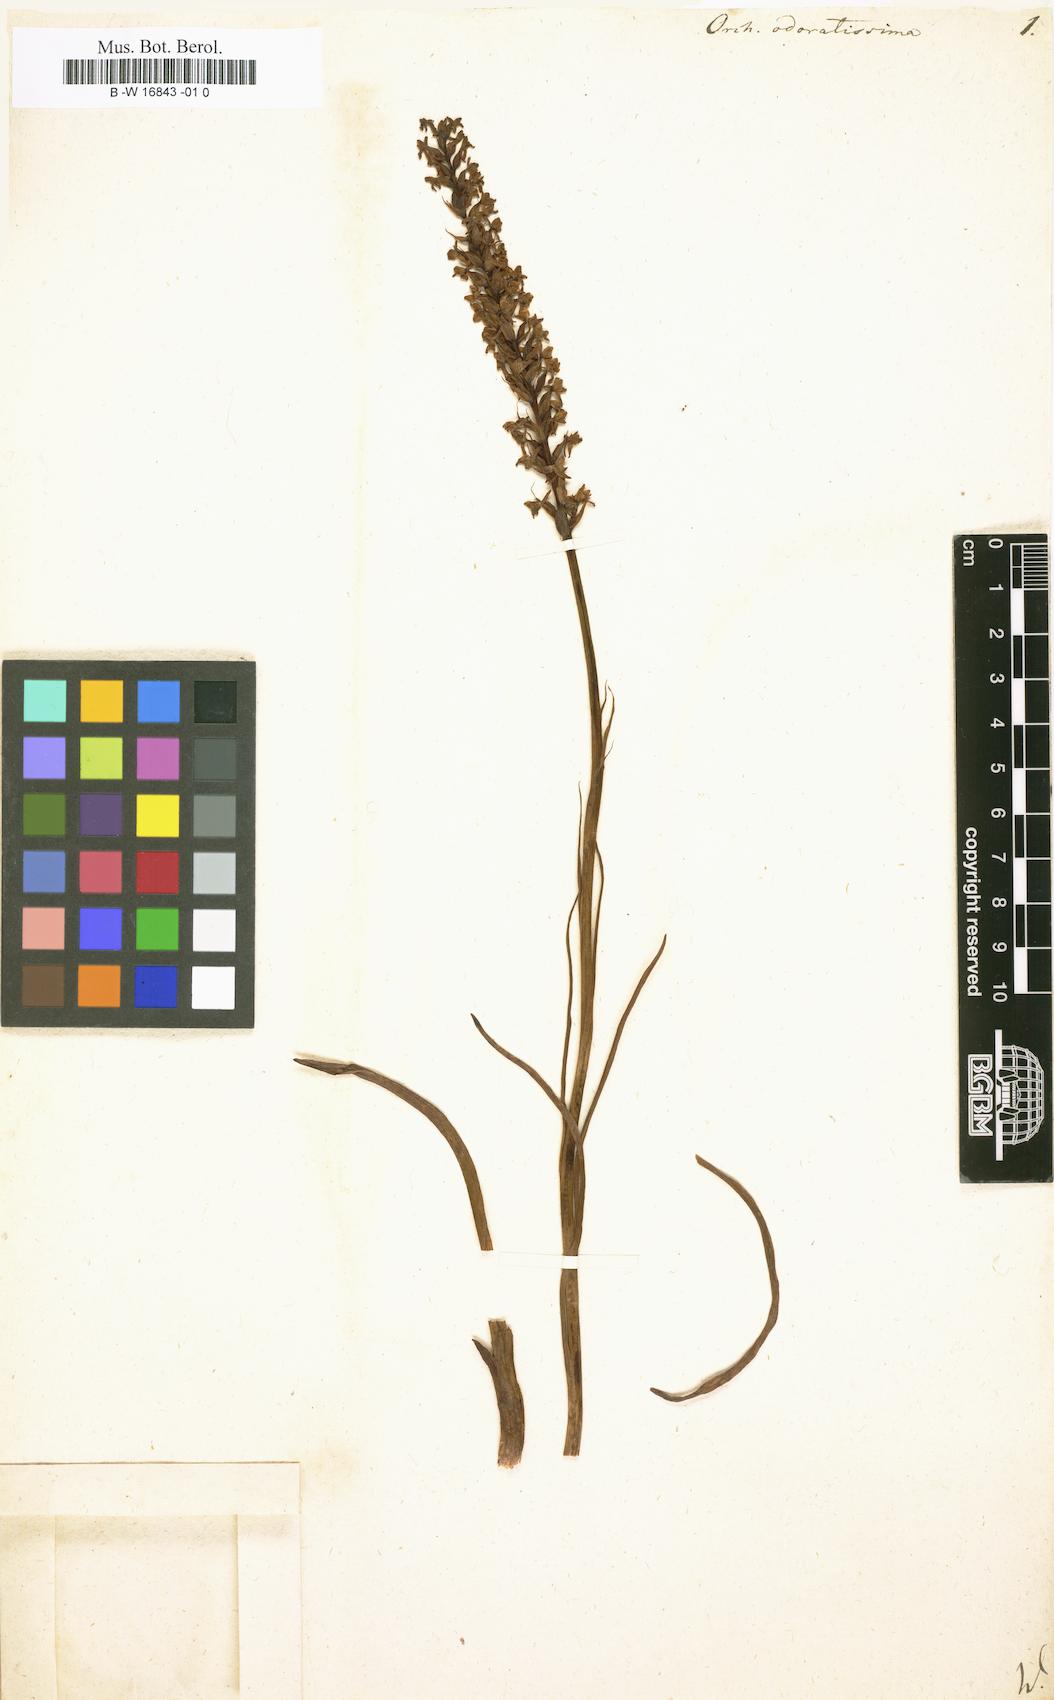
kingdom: Plantae
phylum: Tracheophyta
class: Liliopsida
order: Asparagales
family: Orchidaceae
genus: Gymnadenia
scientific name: Gymnadenia odoratissima
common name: Scented gymnadenia
